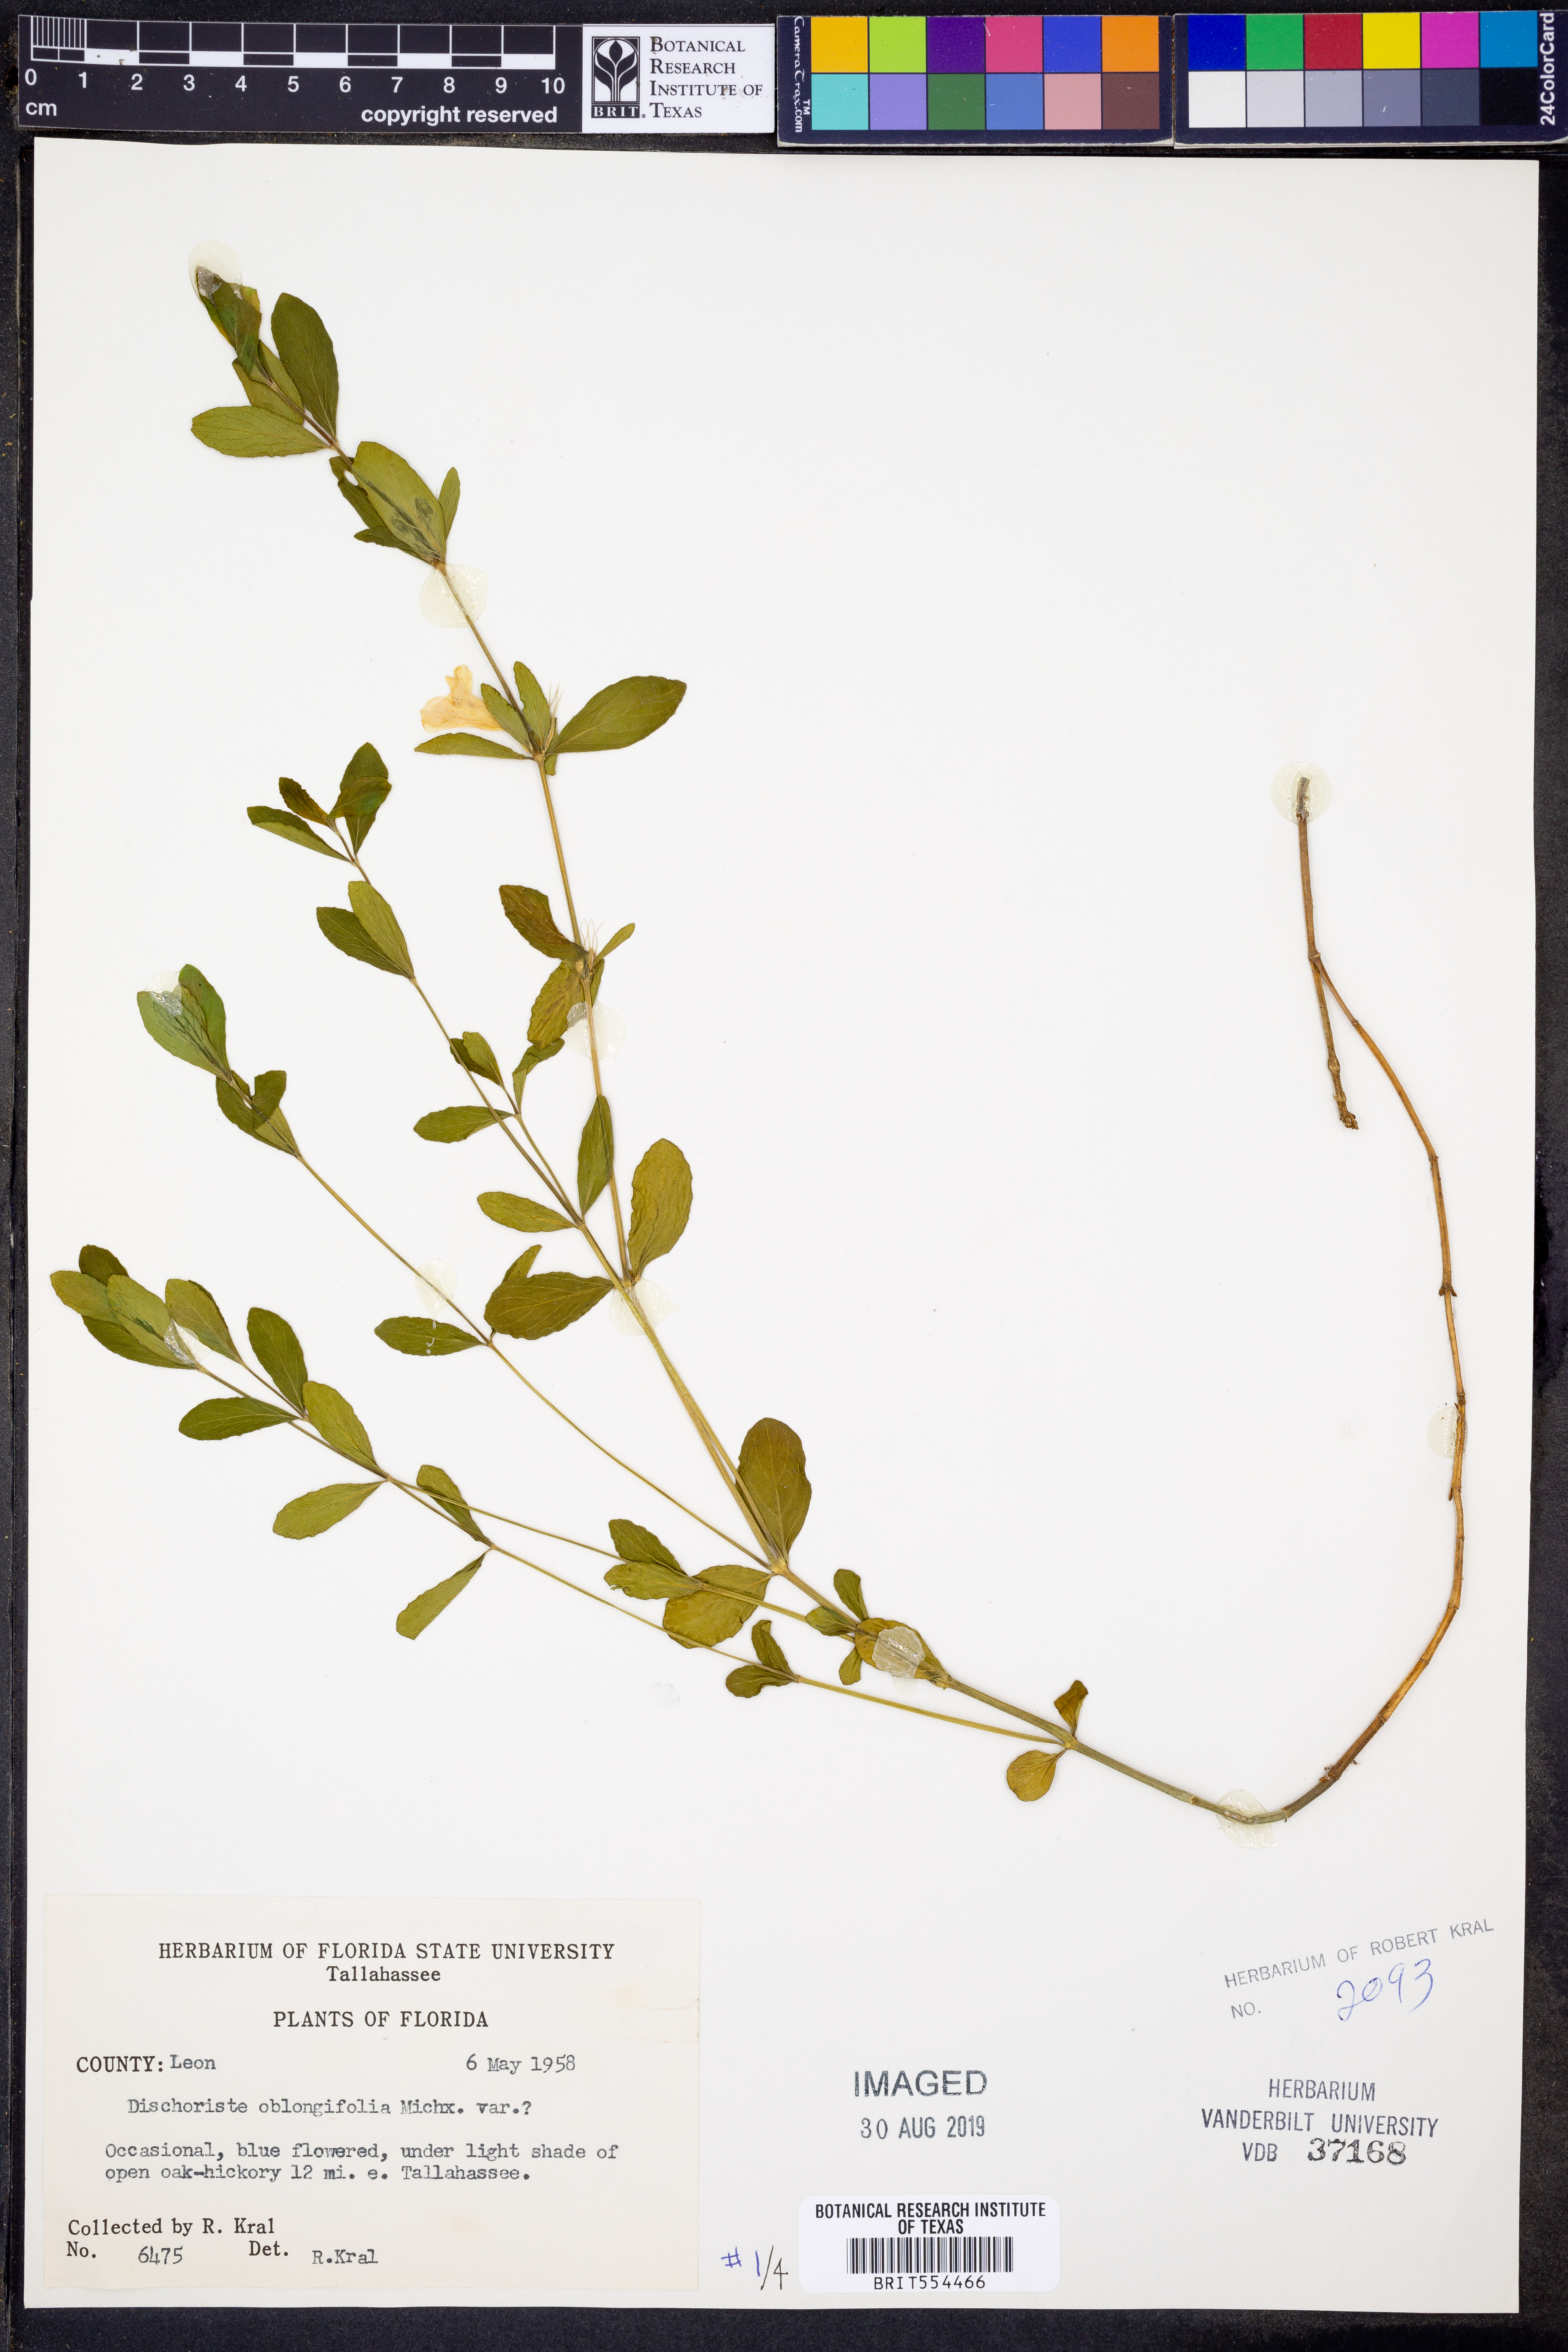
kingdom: Plantae
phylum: Tracheophyta
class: Magnoliopsida
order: Lamiales
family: Acanthaceae
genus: Dyschoriste
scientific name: Dyschoriste oblongifolia
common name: Blue twinflower
